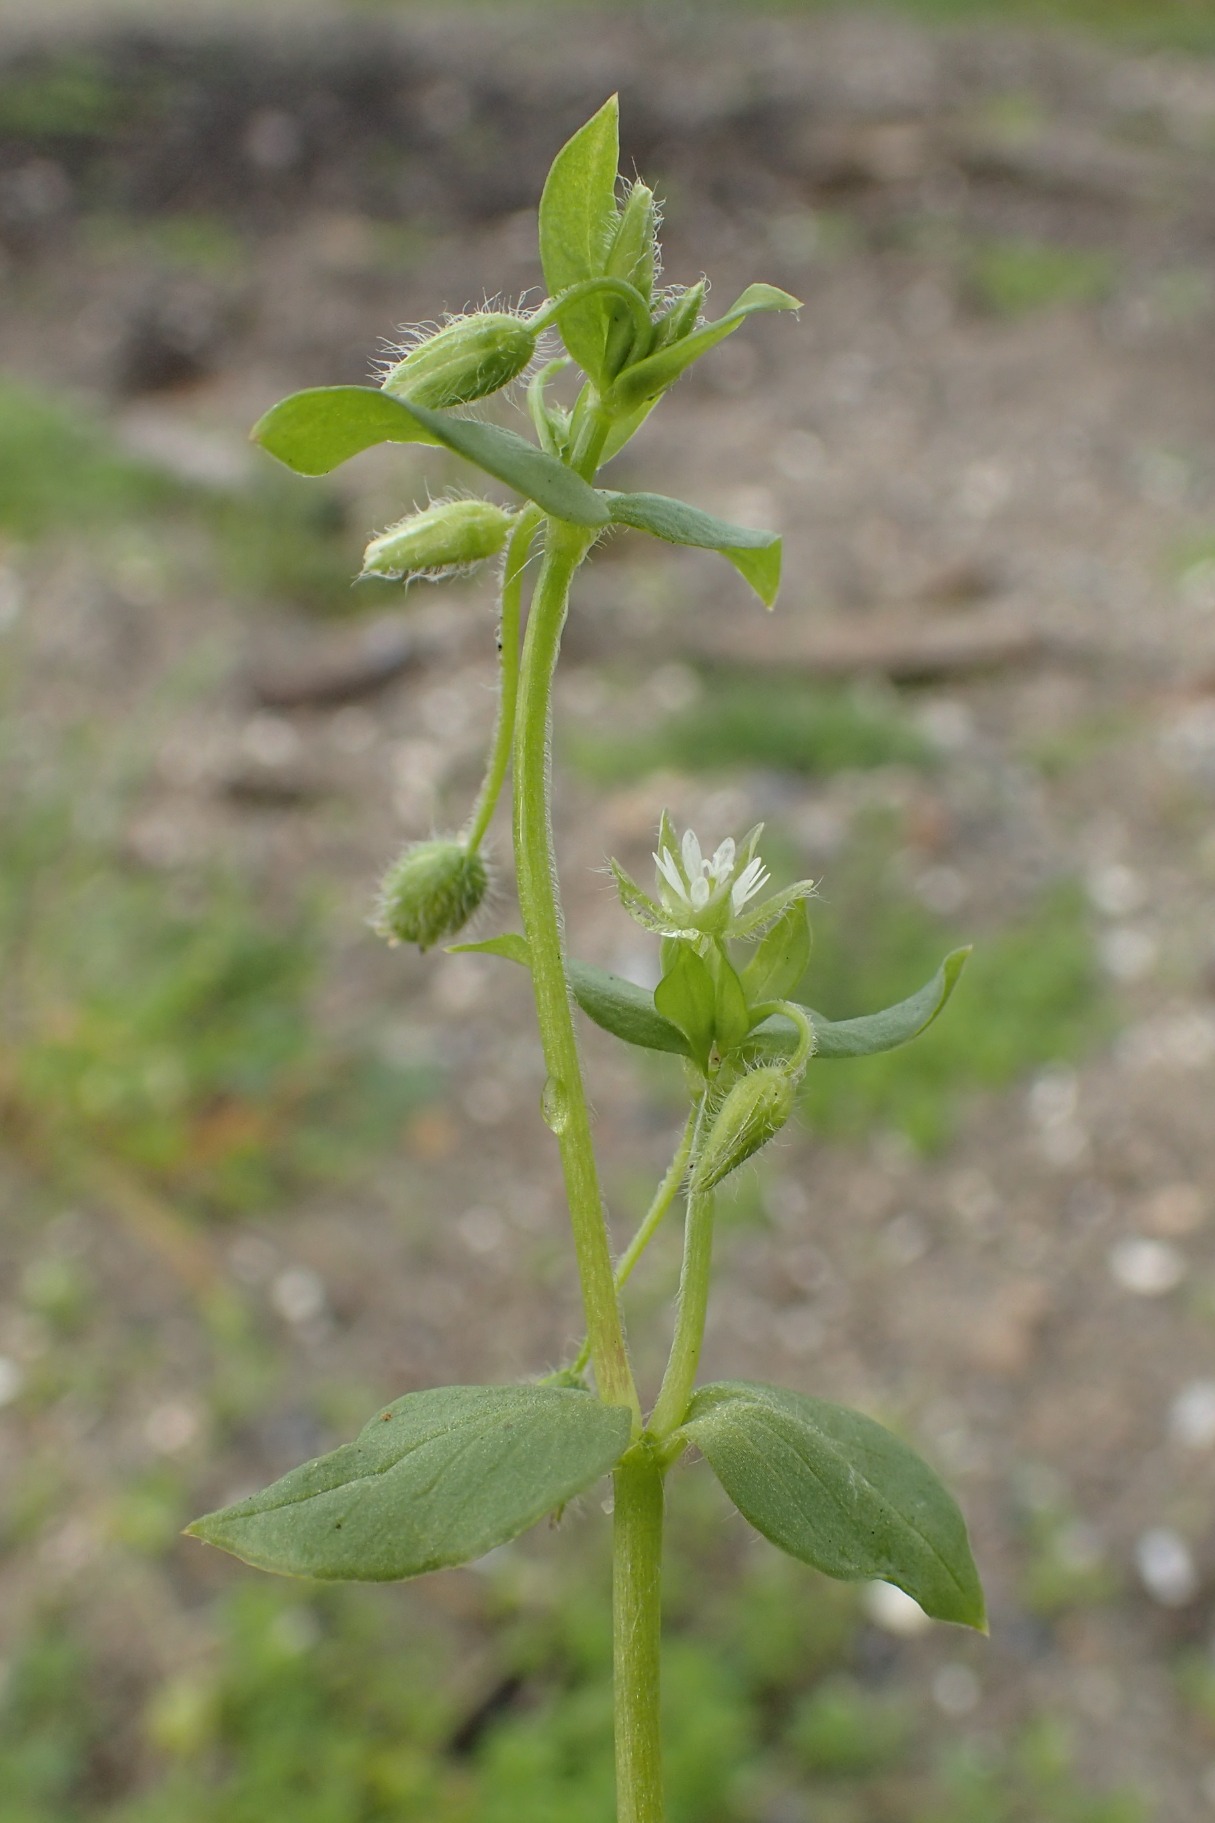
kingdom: Plantae
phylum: Tracheophyta
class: Magnoliopsida
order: Caryophyllales
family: Caryophyllaceae
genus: Stellaria
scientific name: Stellaria media
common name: Almindelig fuglegræs
